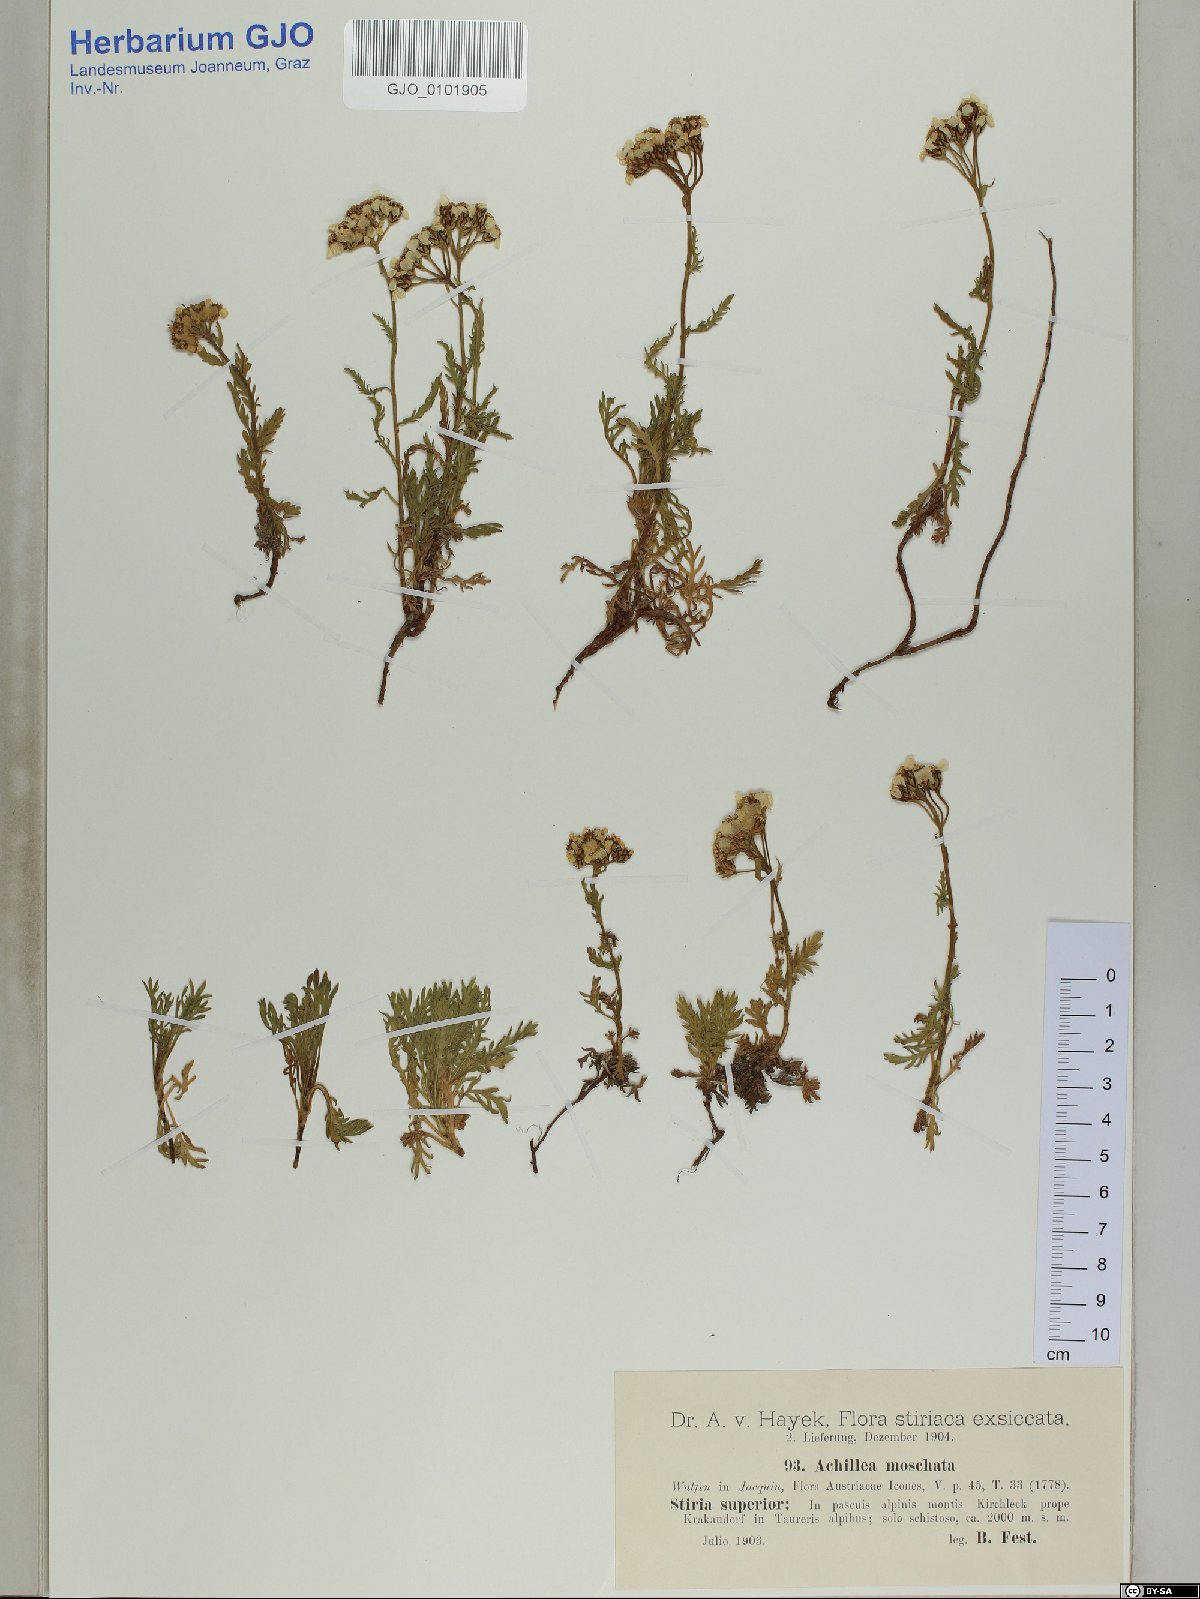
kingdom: Plantae
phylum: Tracheophyta
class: Magnoliopsida
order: Asterales
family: Asteraceae
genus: Achillea
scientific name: Achillea erba-rotta
